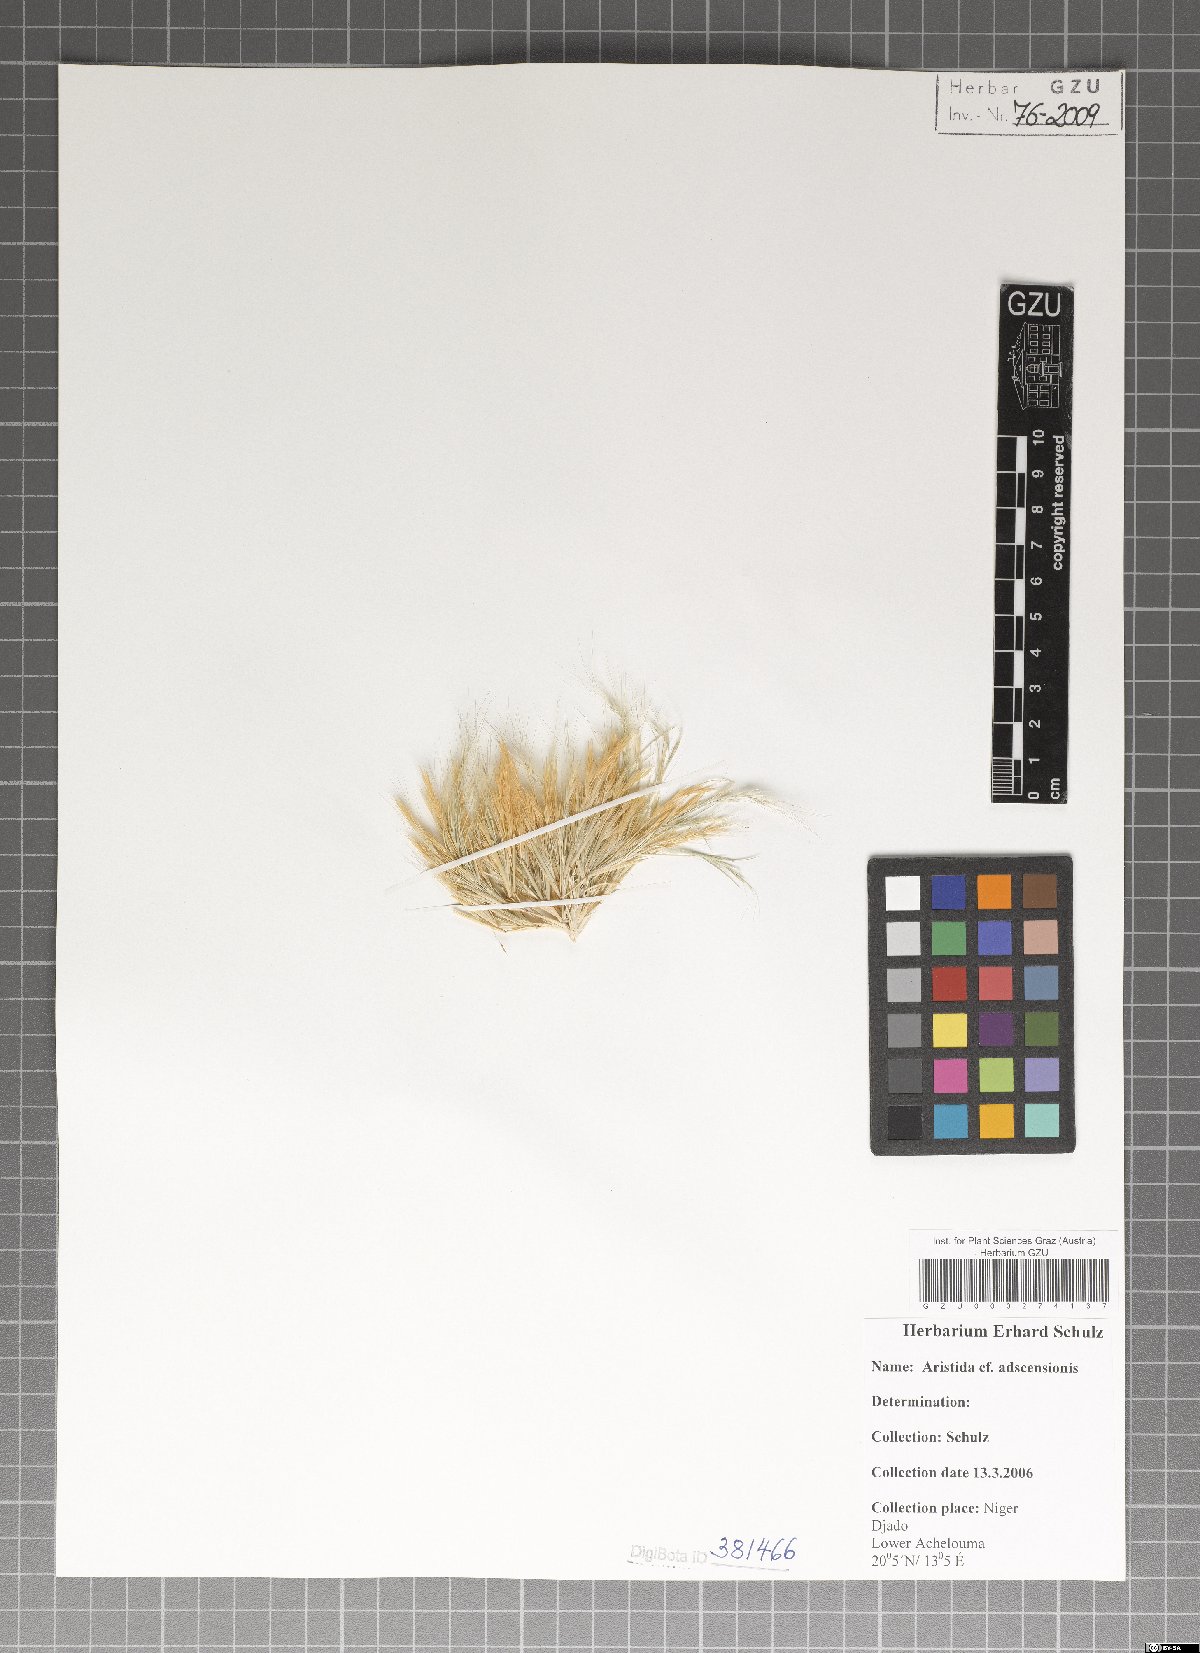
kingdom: Plantae
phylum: Tracheophyta
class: Liliopsida
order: Poales
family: Poaceae
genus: Aristida
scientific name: Aristida adscensionis
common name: Sixweeks threeawn
